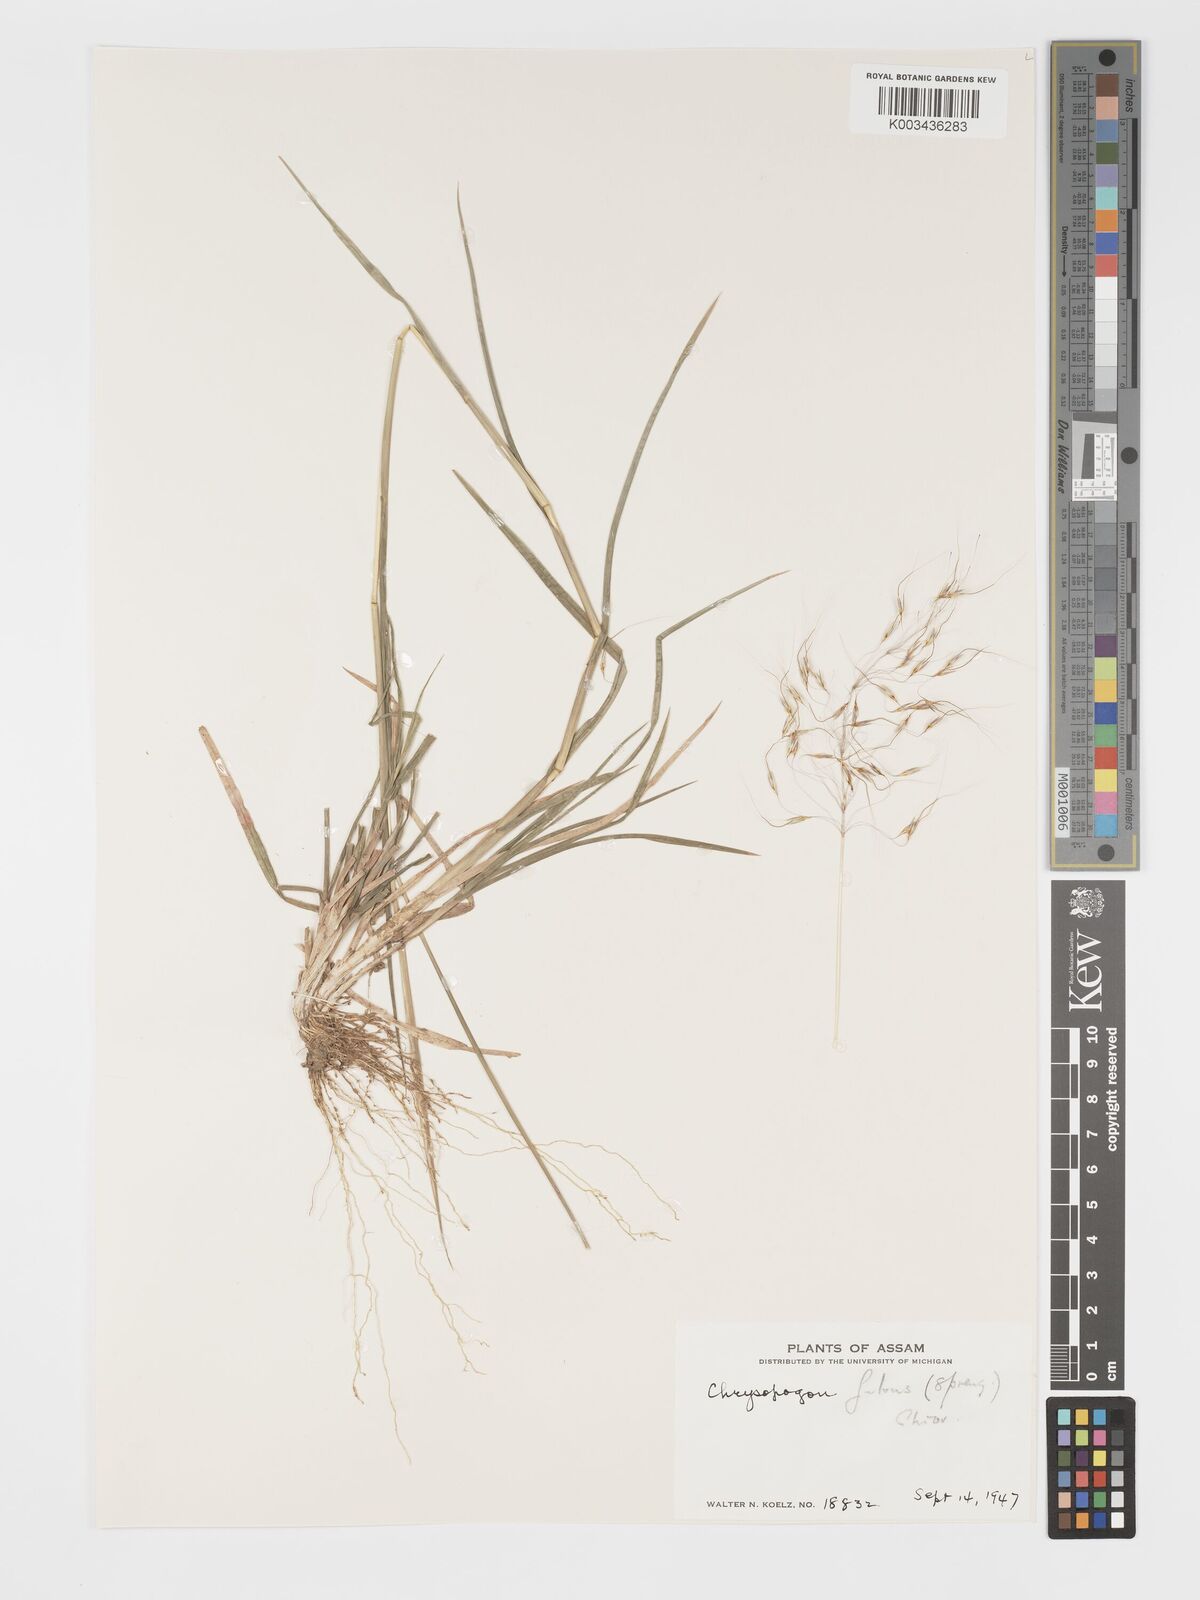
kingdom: Plantae
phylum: Tracheophyta
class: Liliopsida
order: Poales
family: Poaceae
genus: Chrysopogon
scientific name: Chrysopogon fulvus
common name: Red false beardgrass
